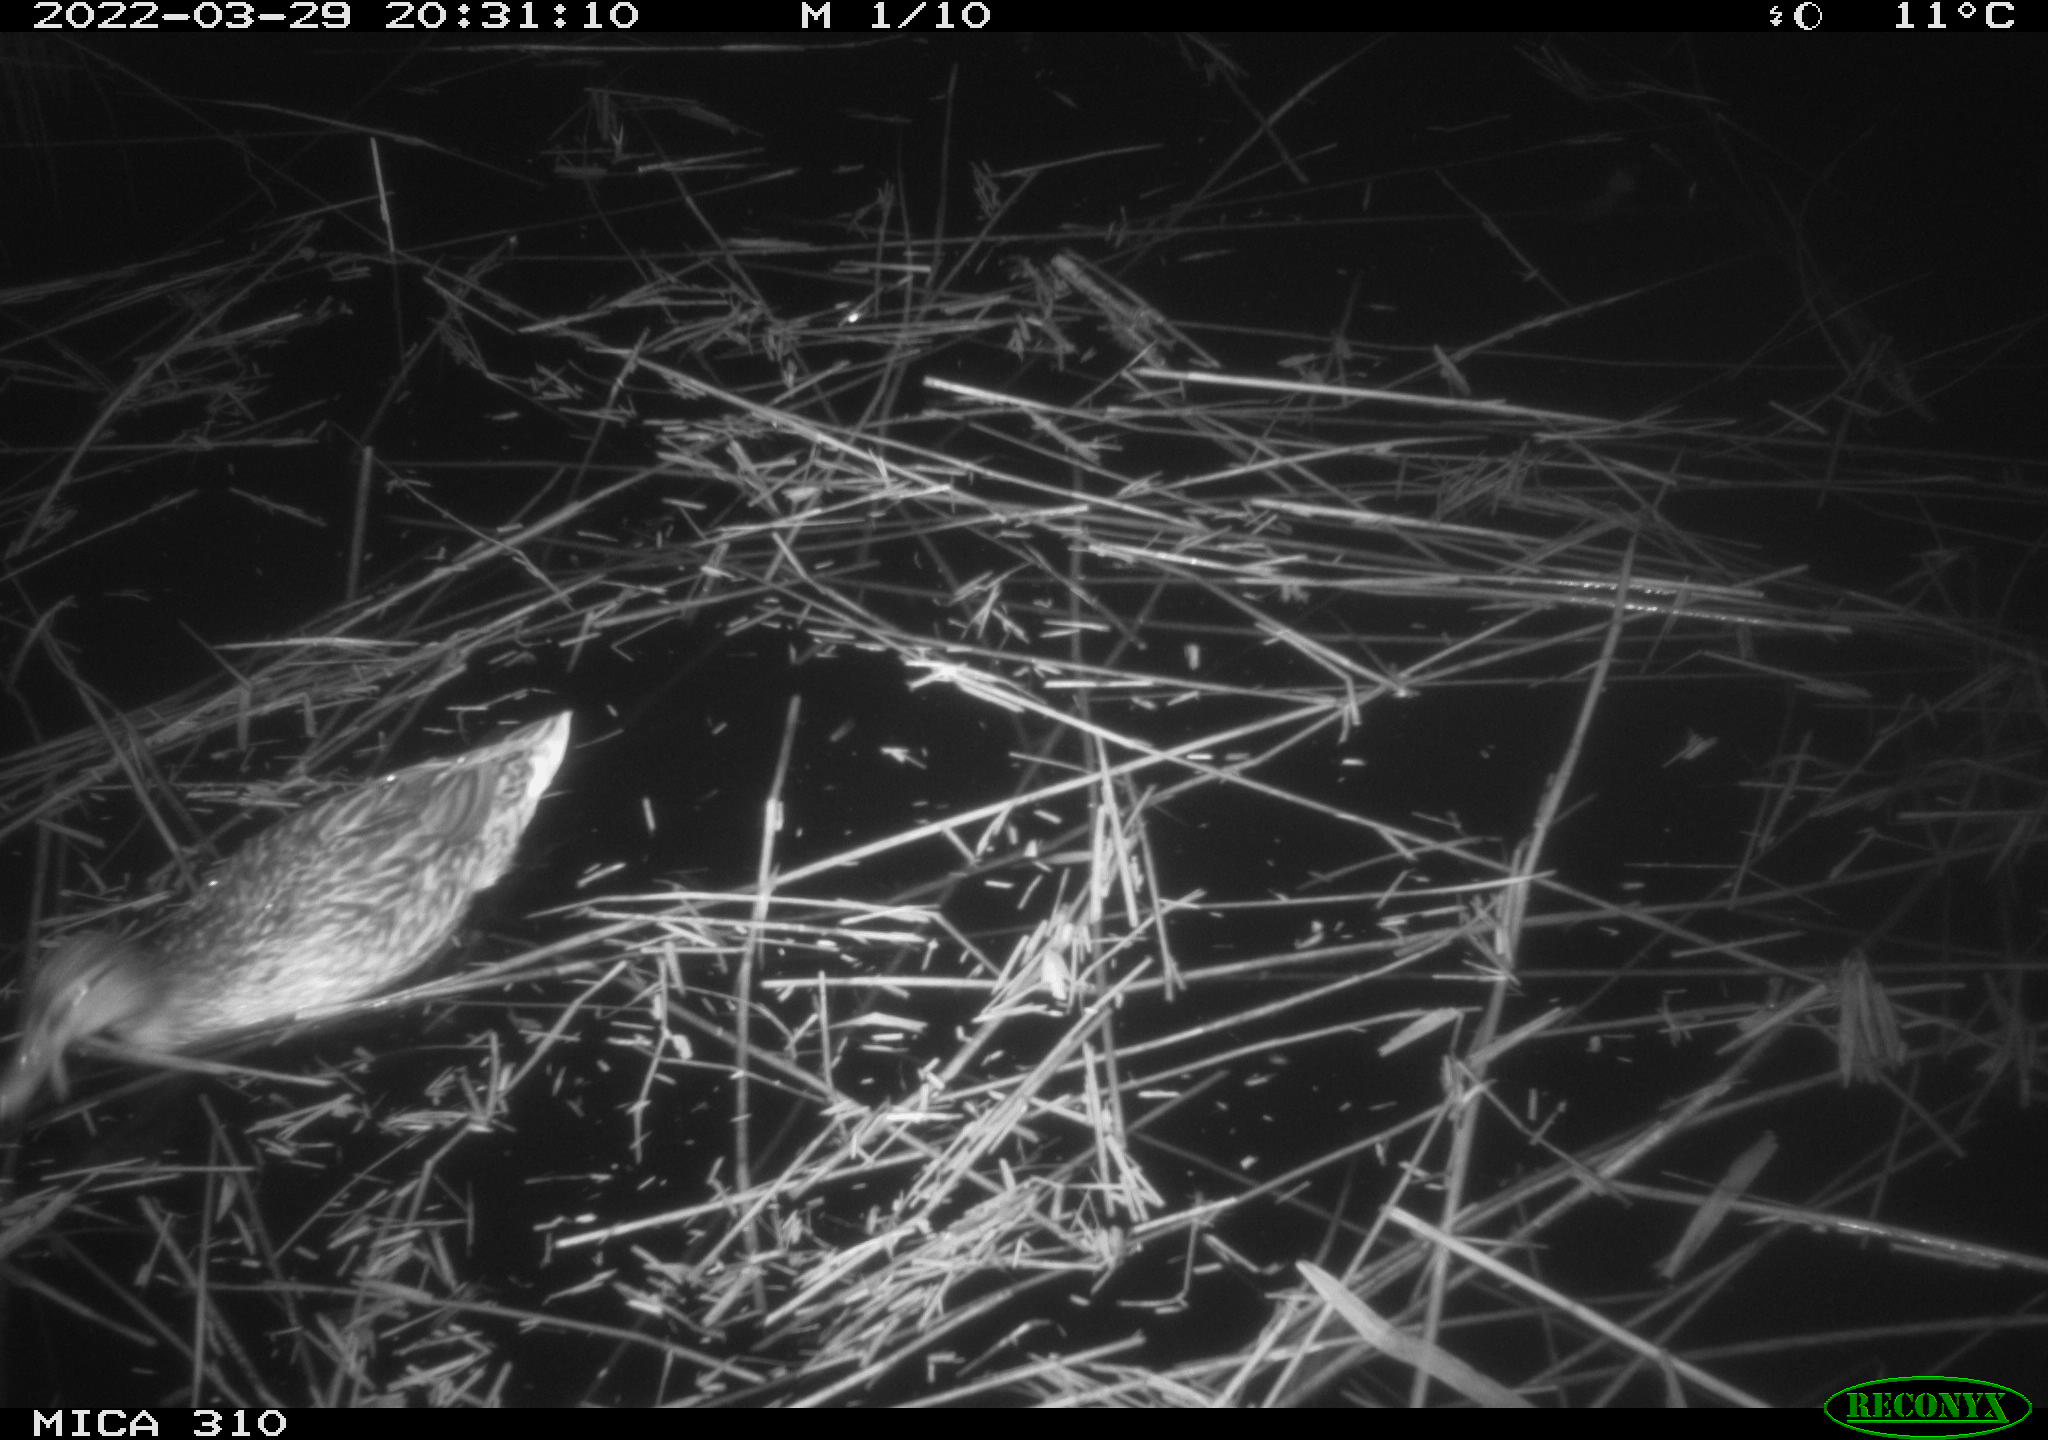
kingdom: Animalia
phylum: Chordata
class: Aves
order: Anseriformes
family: Anatidae
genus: Anas
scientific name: Anas platyrhynchos
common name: Mallard
